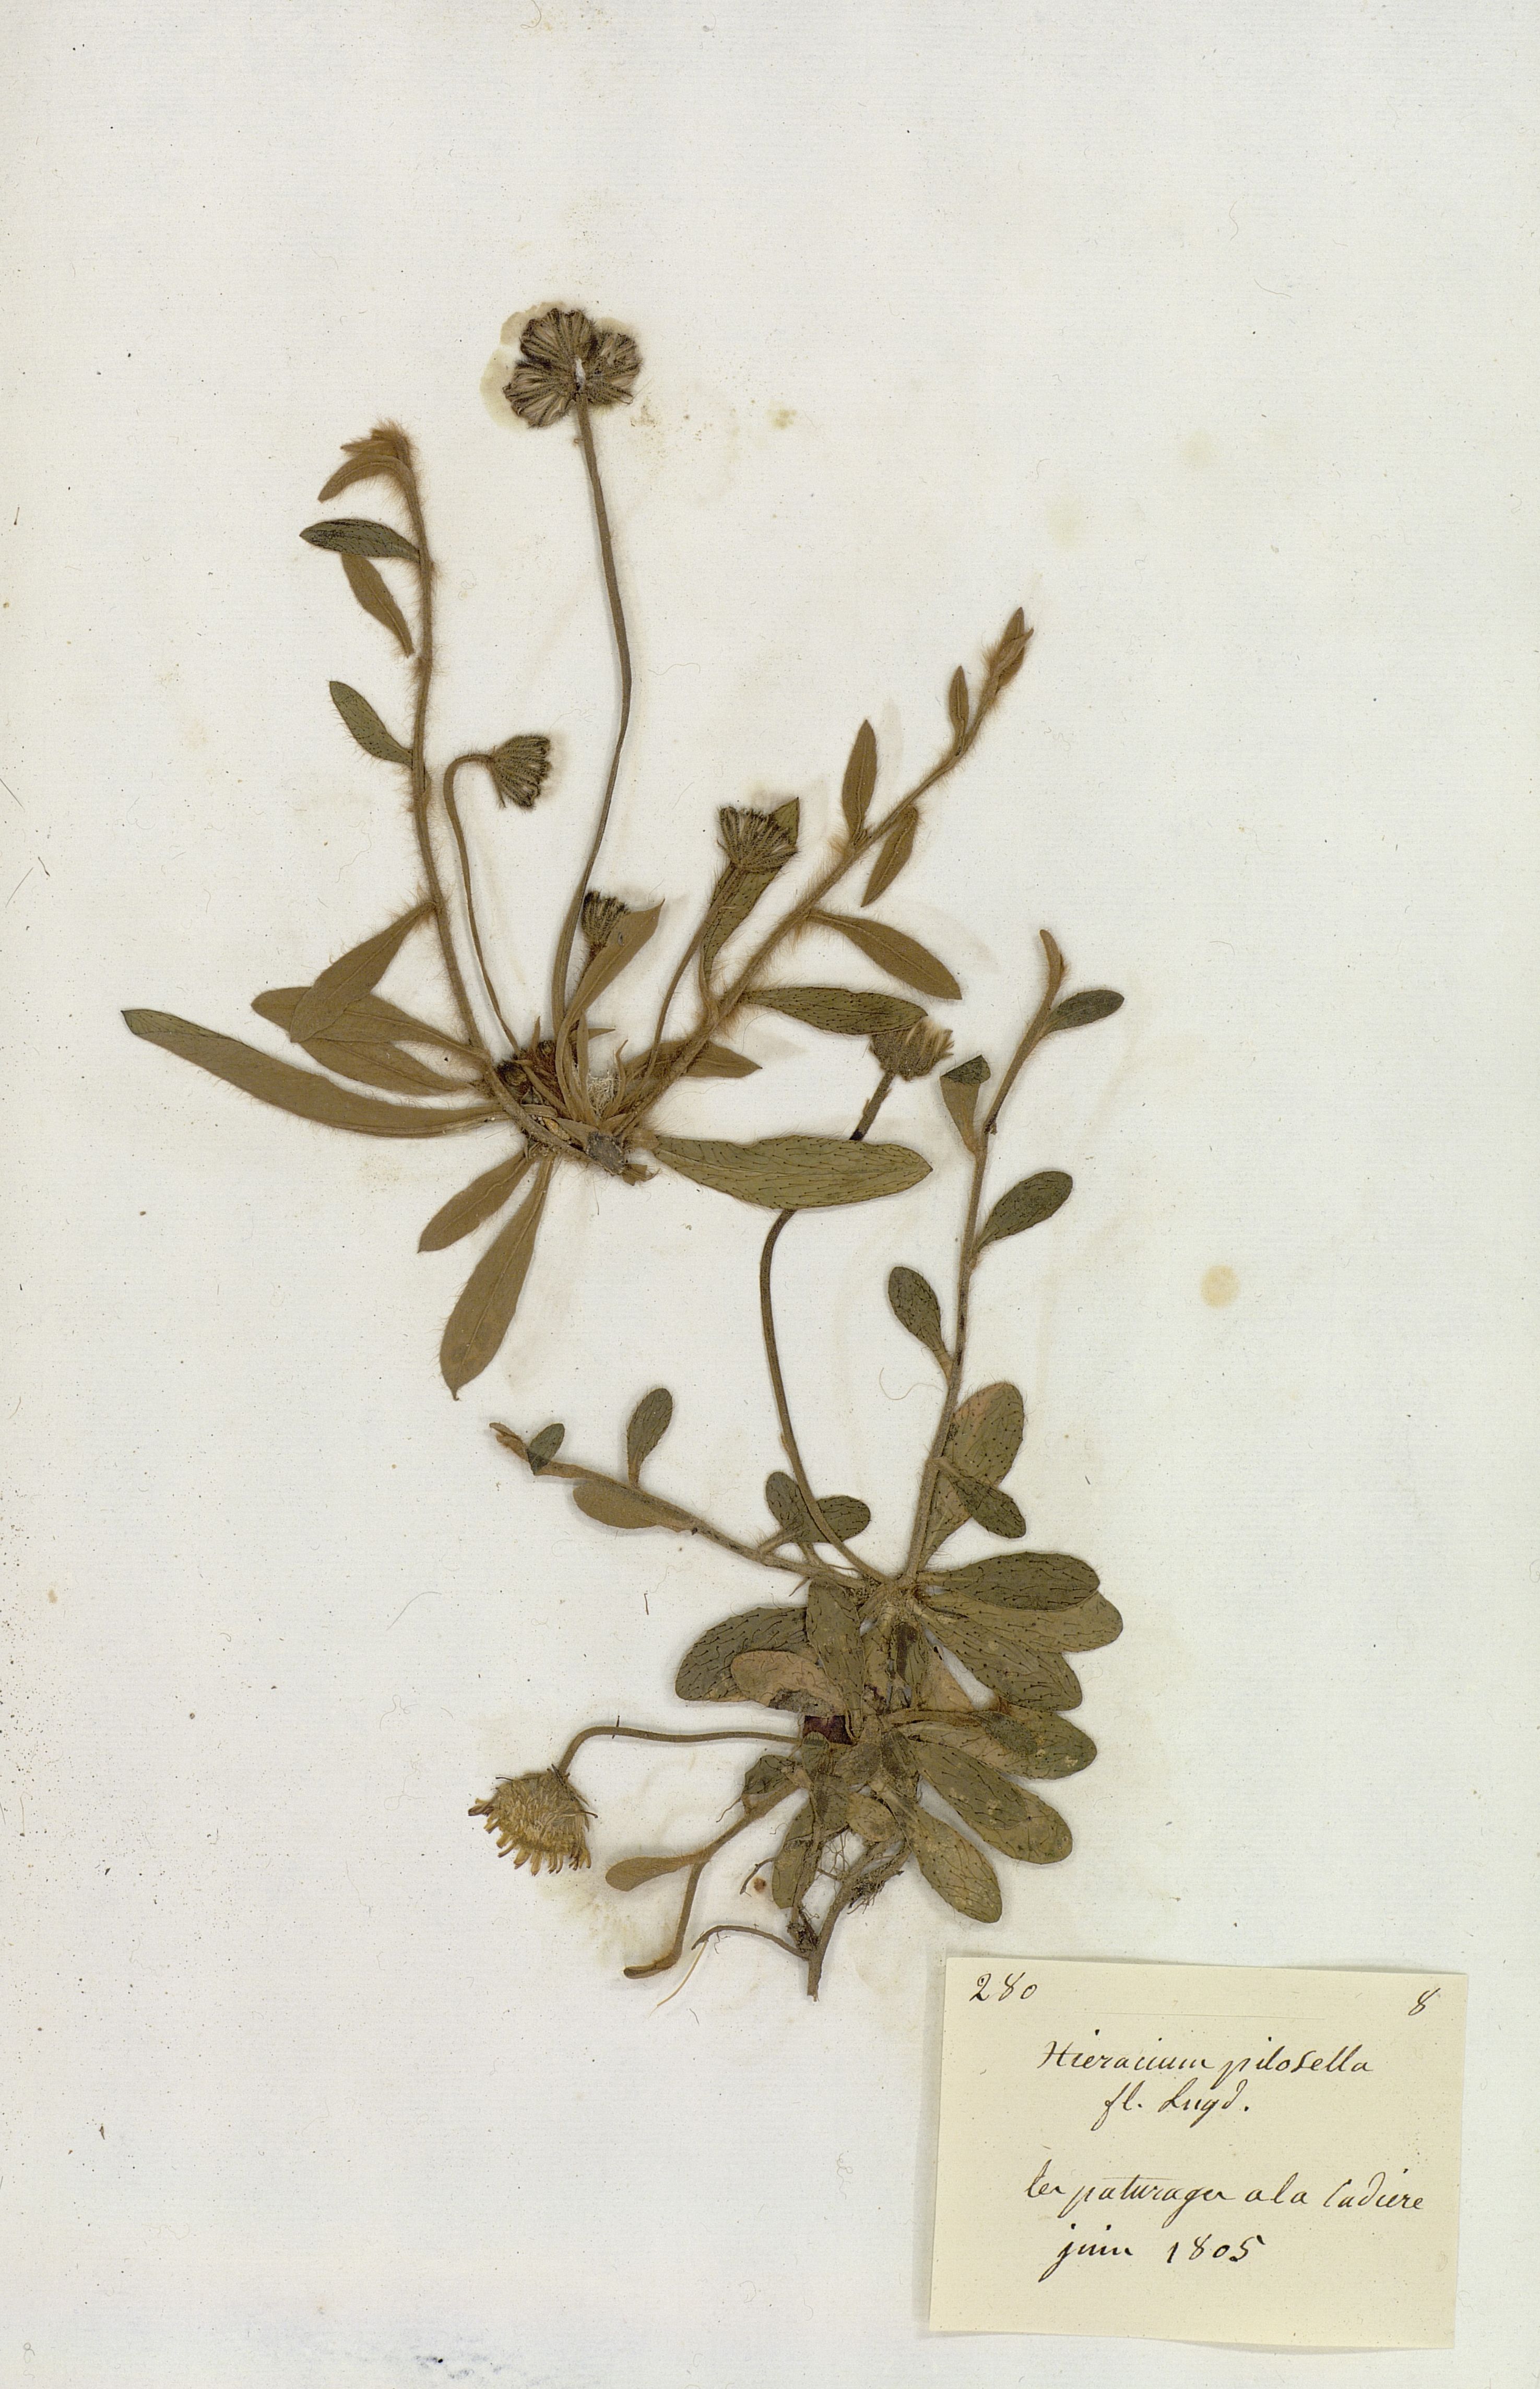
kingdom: Plantae
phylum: Tracheophyta
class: Magnoliopsida
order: Asterales
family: Asteraceae
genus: Pilosella
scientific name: Pilosella officinarum
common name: Mouse-ear hawkweed
